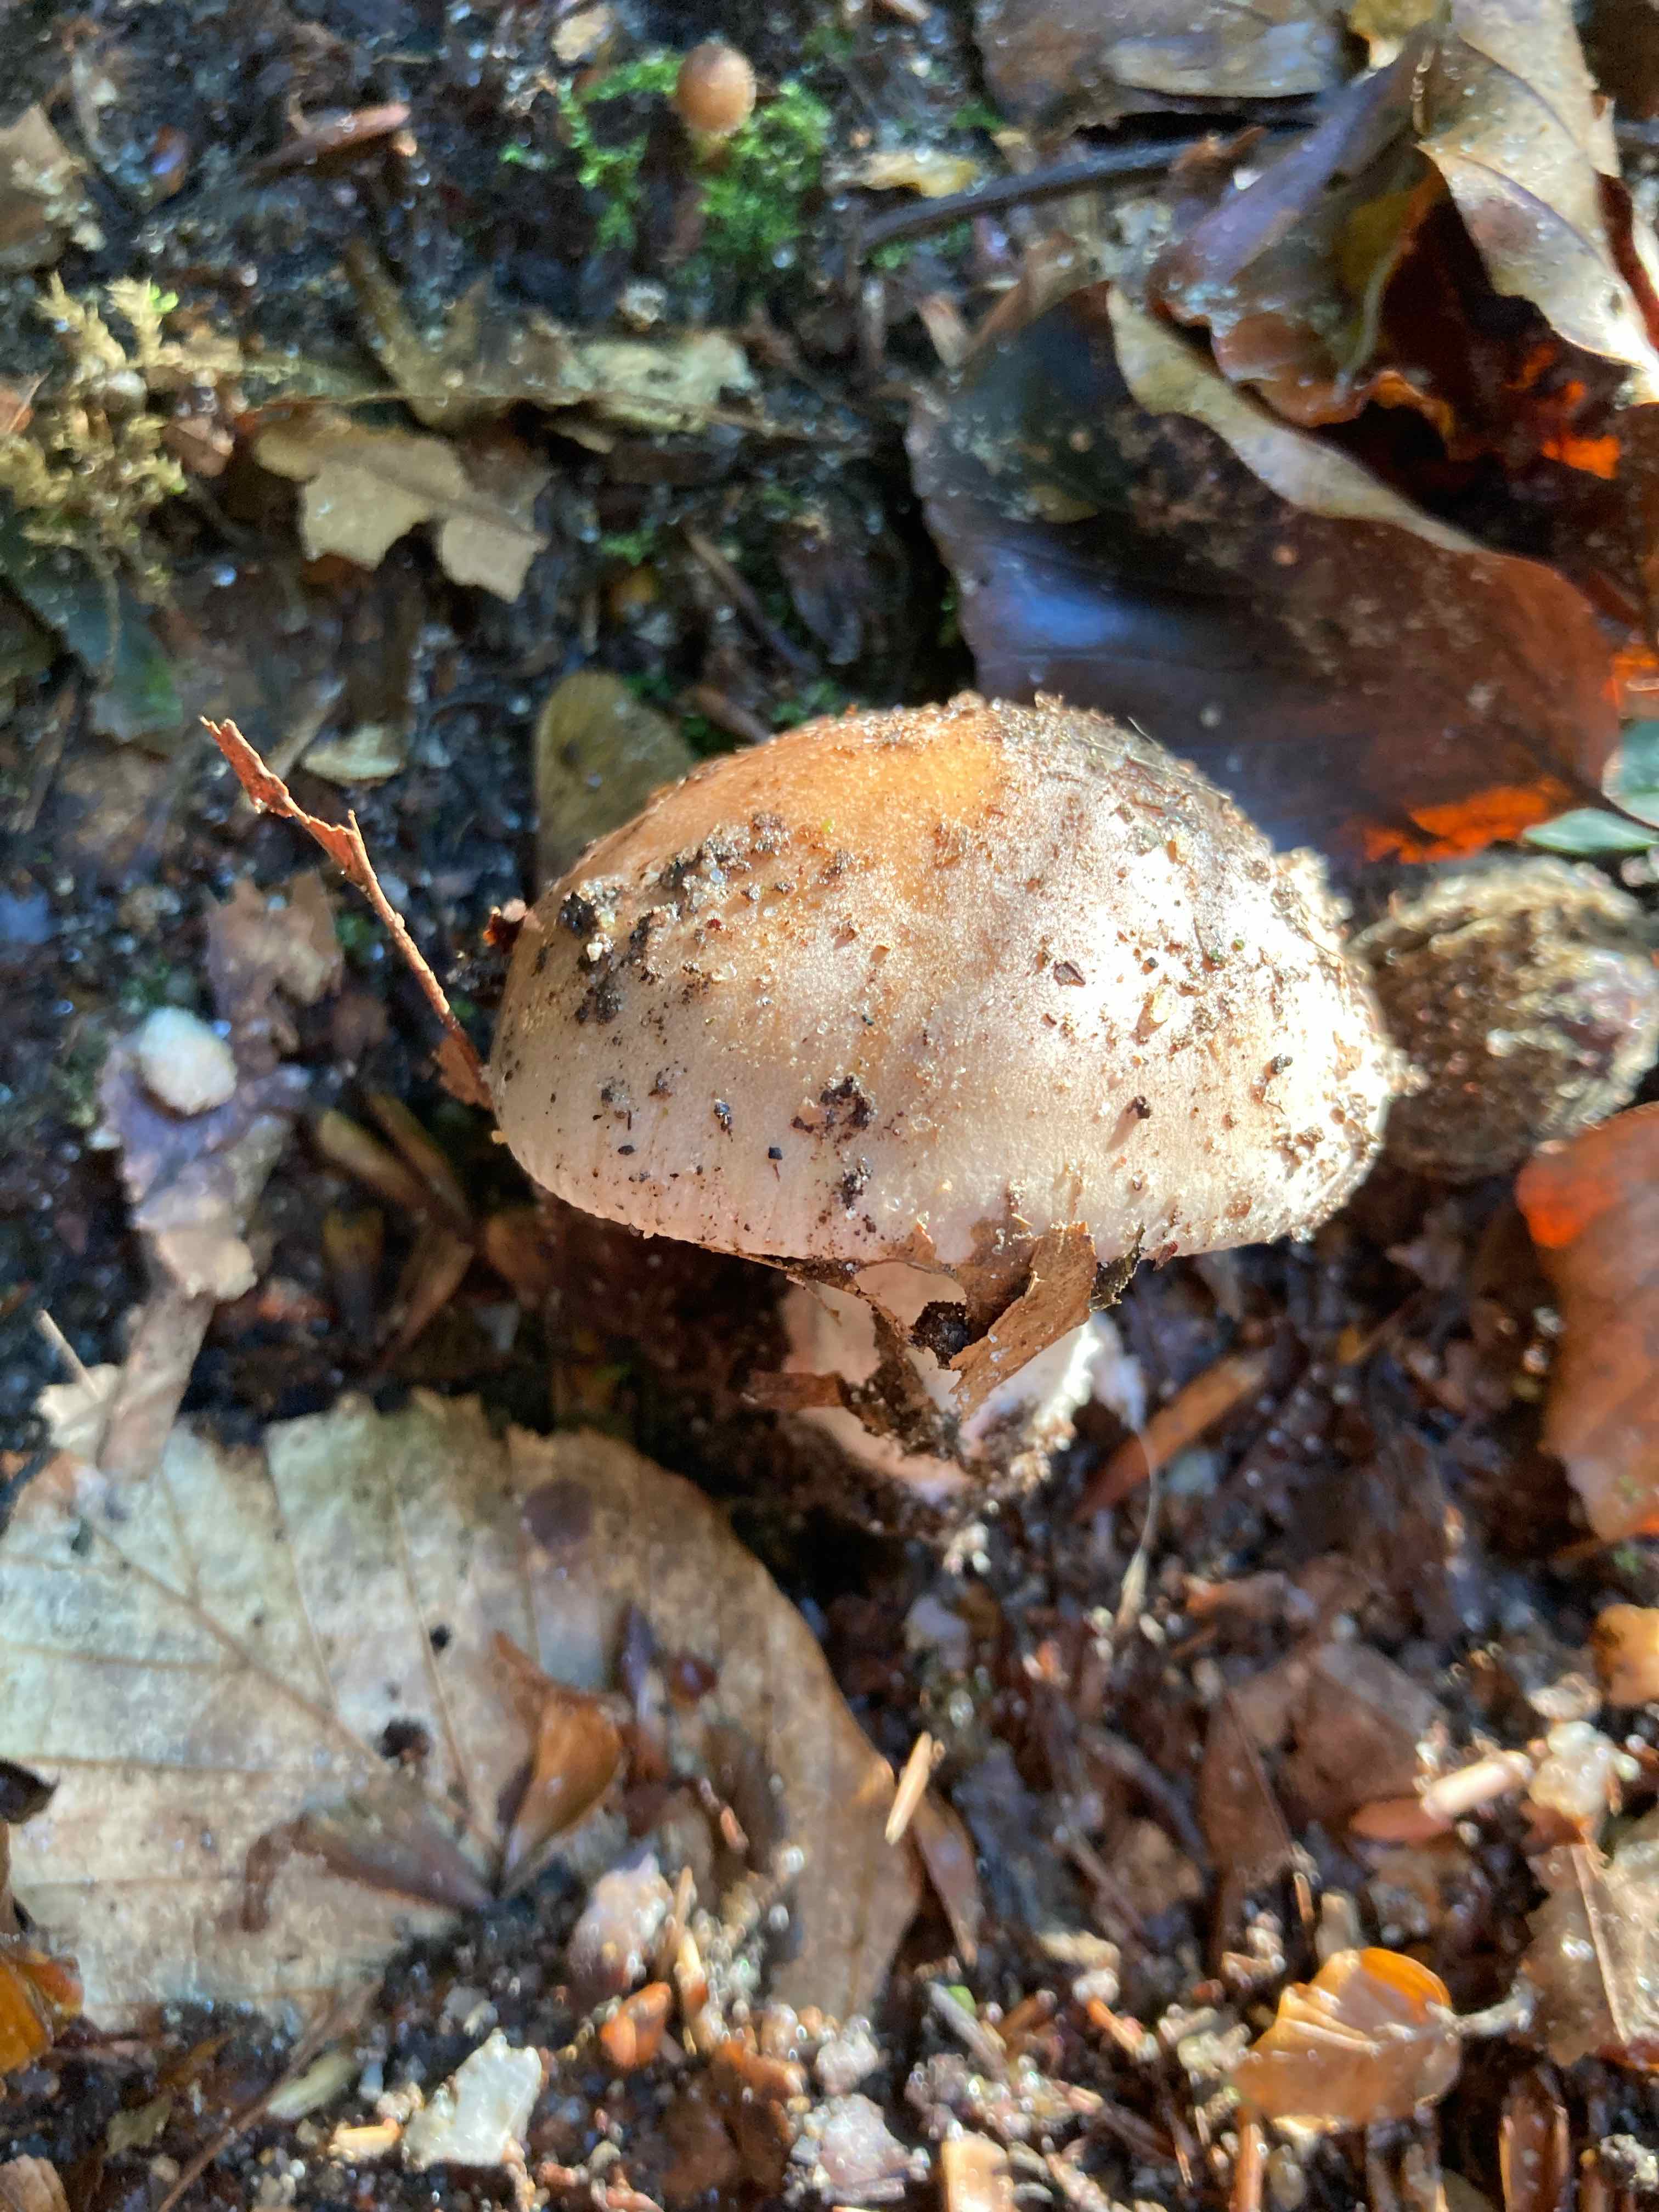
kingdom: Fungi
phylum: Basidiomycota
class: Agaricomycetes
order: Agaricales
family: Hymenogastraceae
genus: Hebeloma
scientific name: Hebeloma
